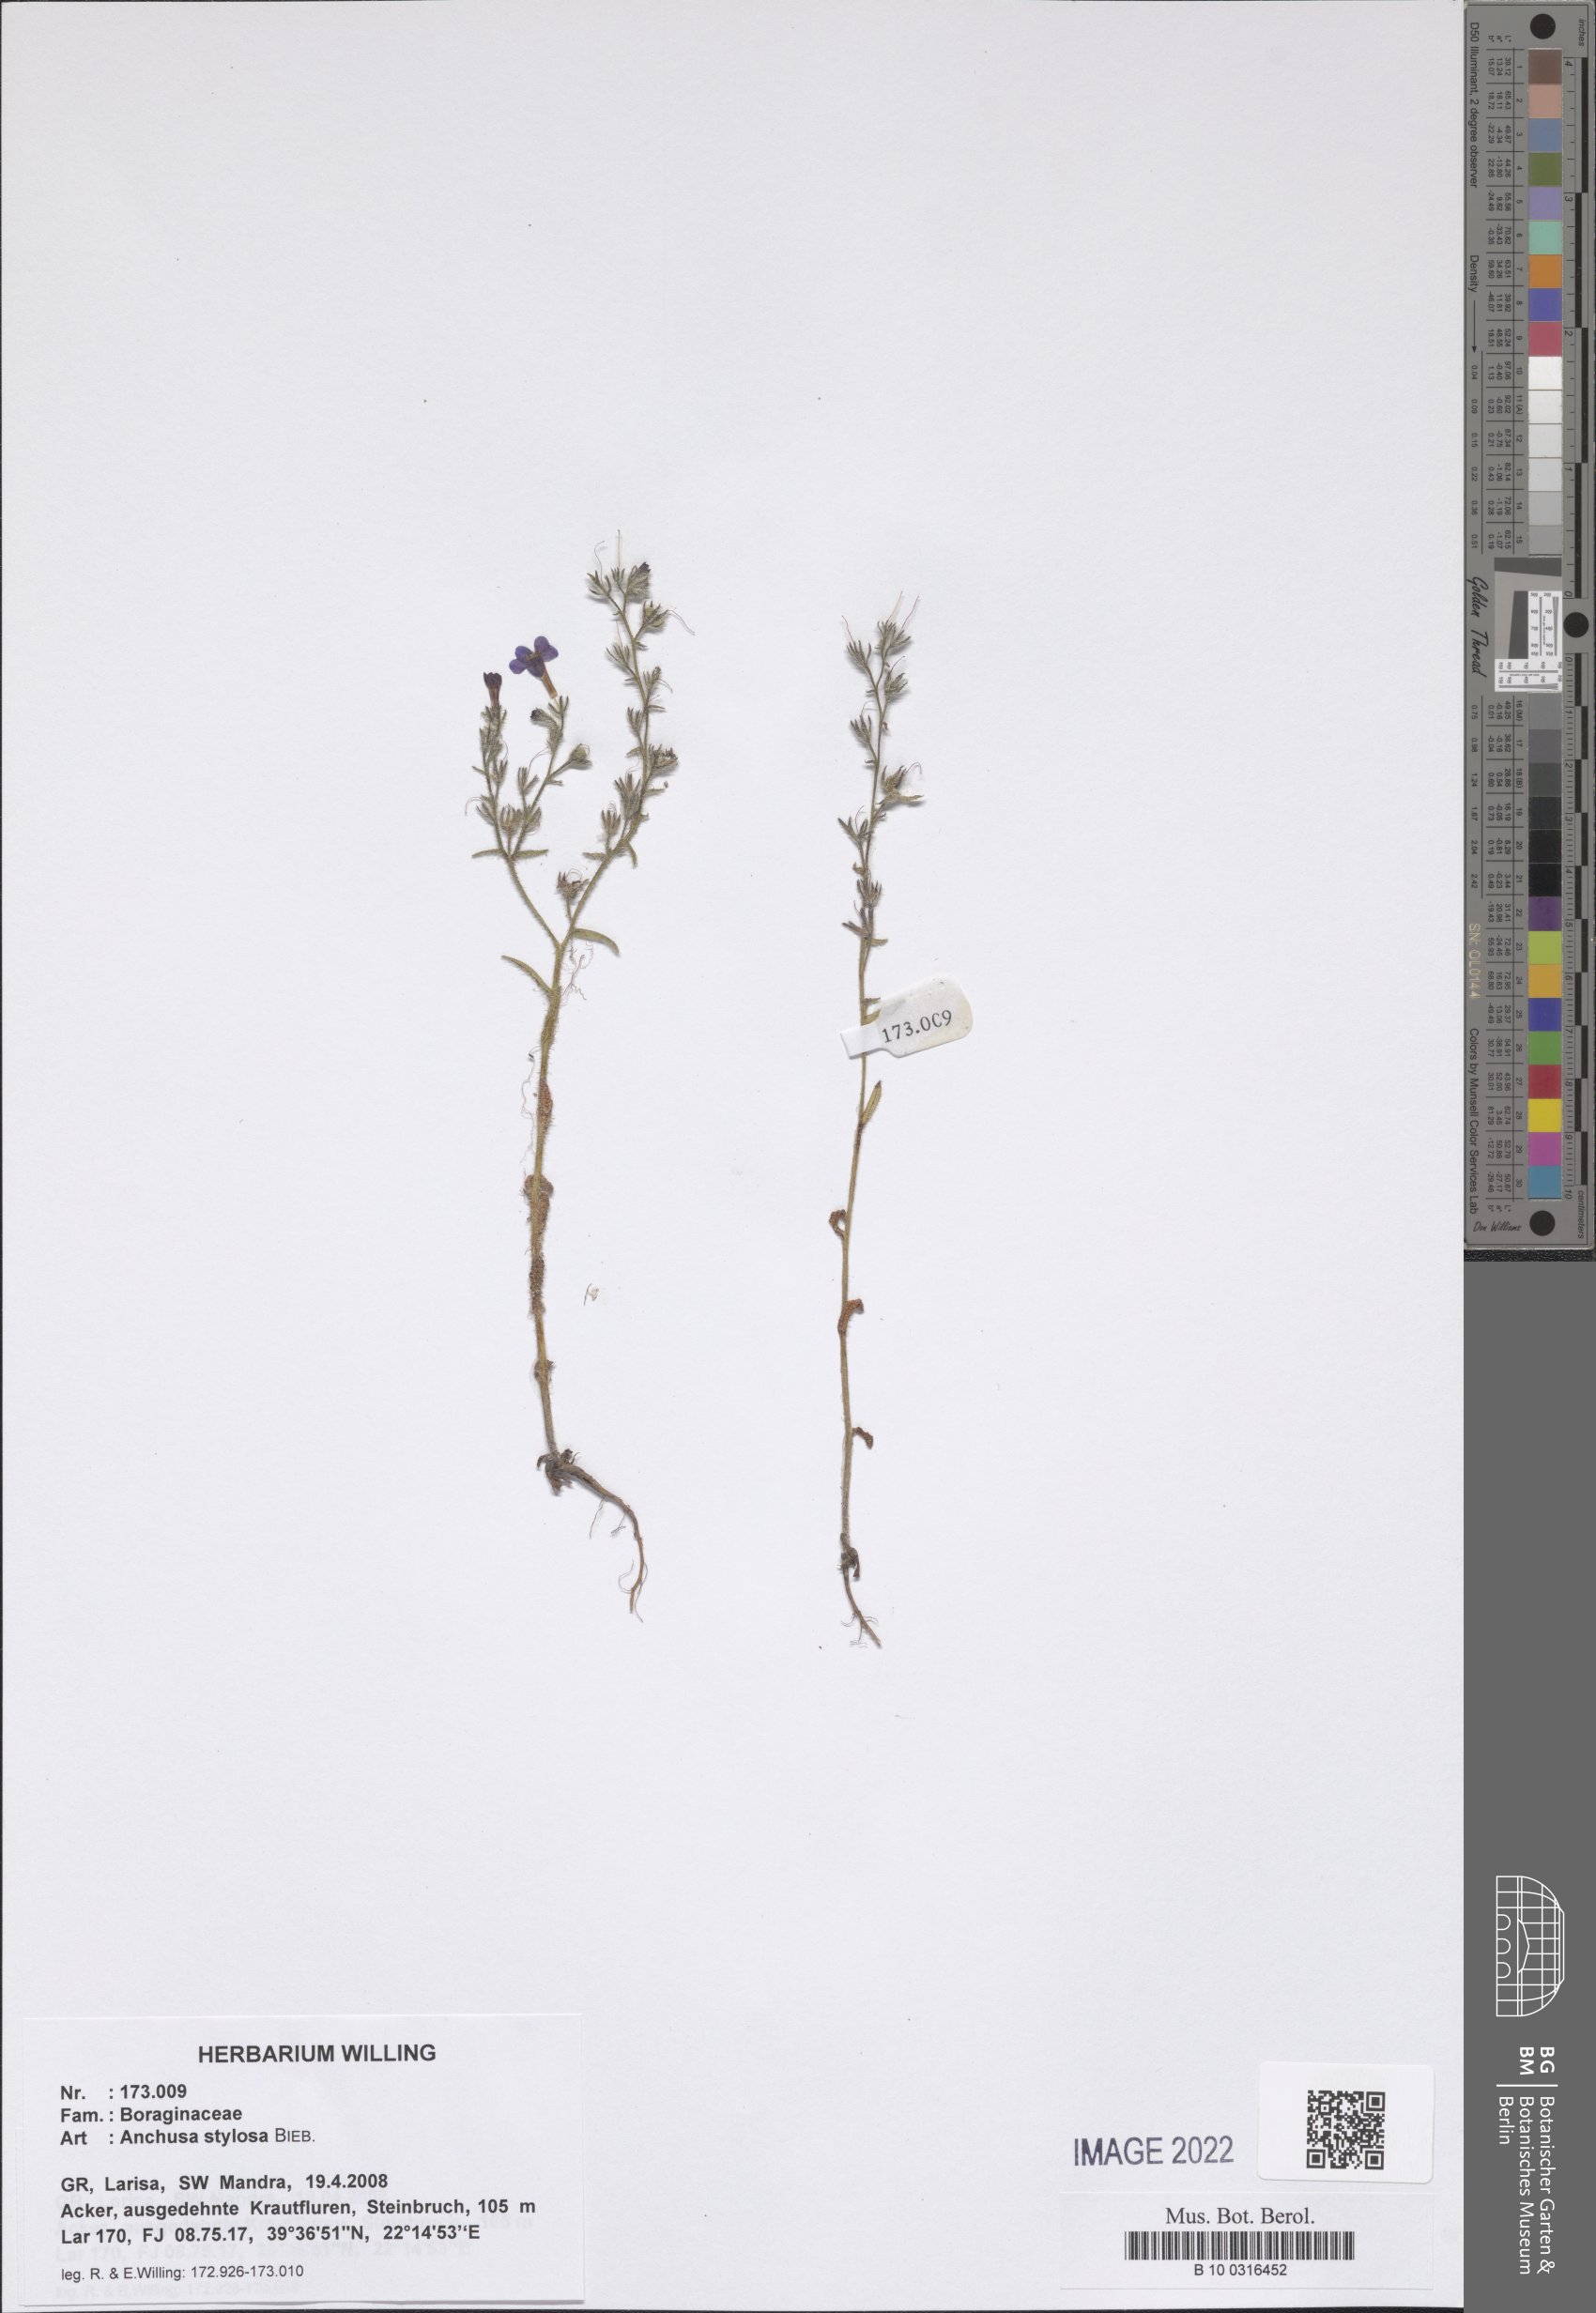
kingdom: Plantae
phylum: Tracheophyta
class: Magnoliopsida
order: Boraginales
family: Boraginaceae
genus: Anchusa
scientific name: Anchusa stylosa
